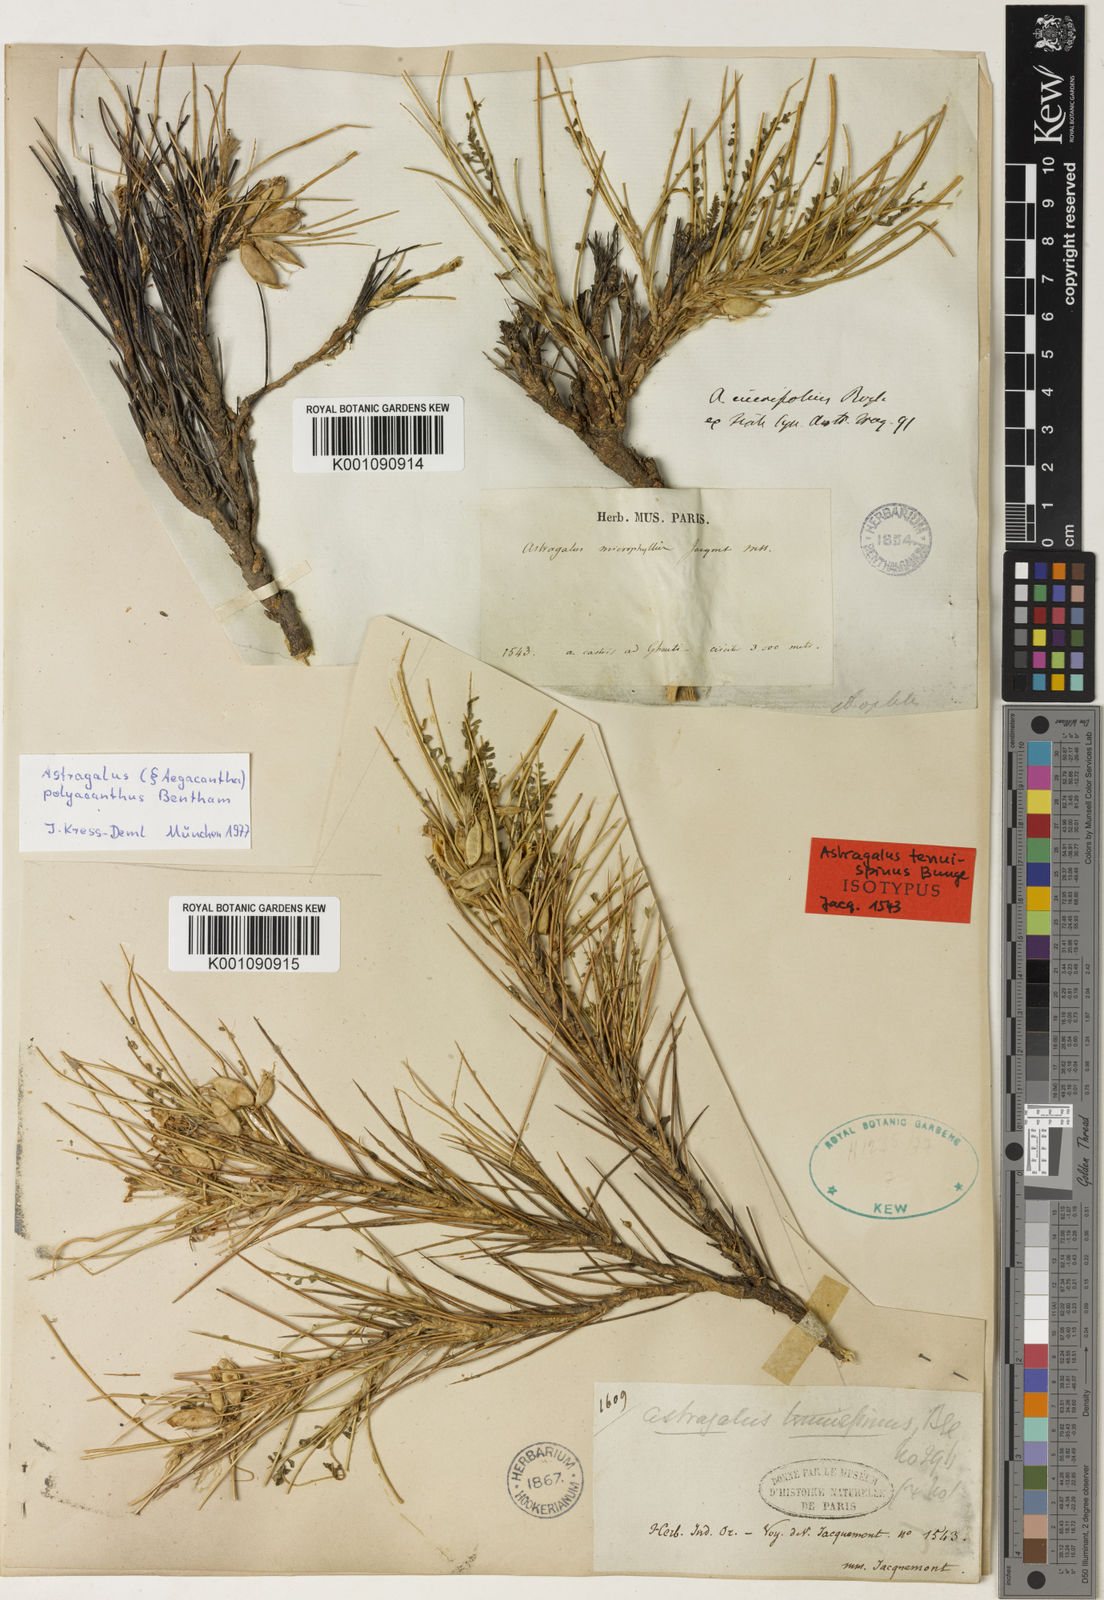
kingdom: Plantae
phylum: Tracheophyta
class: Magnoliopsida
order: Fabales
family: Fabaceae
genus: Astragalus
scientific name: Astragalus
